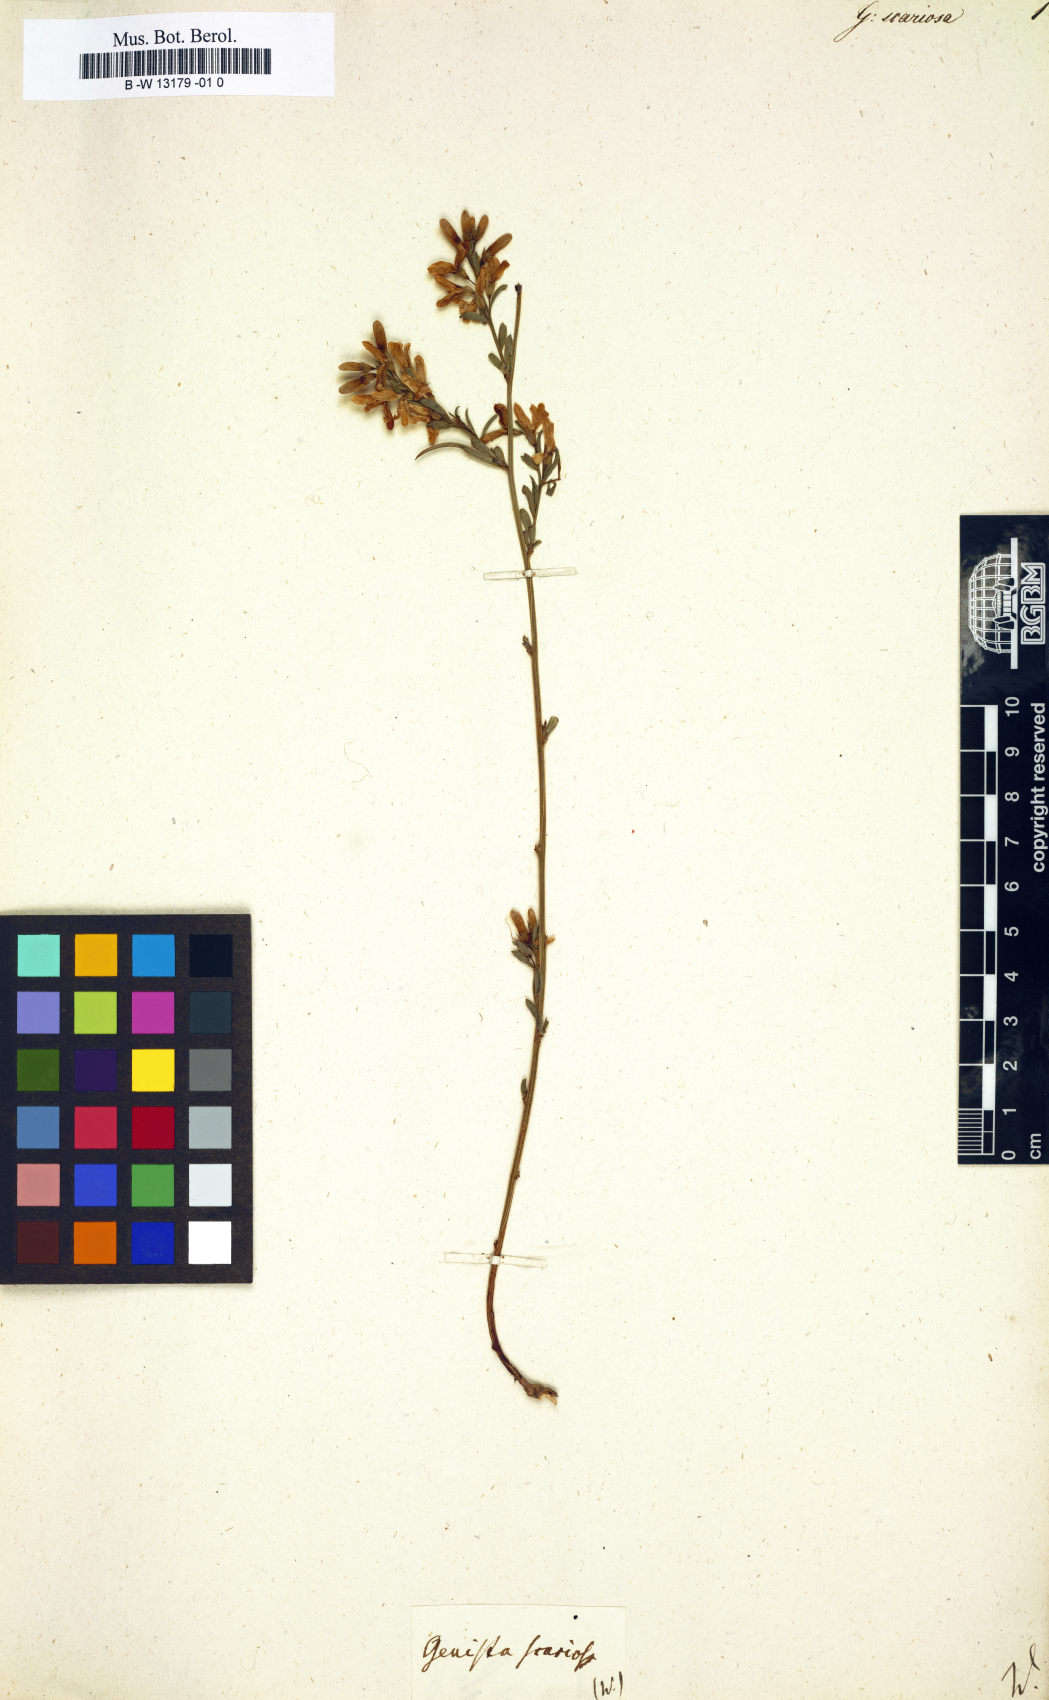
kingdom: Plantae
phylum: Tracheophyta
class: Magnoliopsida
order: Fabales
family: Fabaceae
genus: Genista
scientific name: Genista januensis
